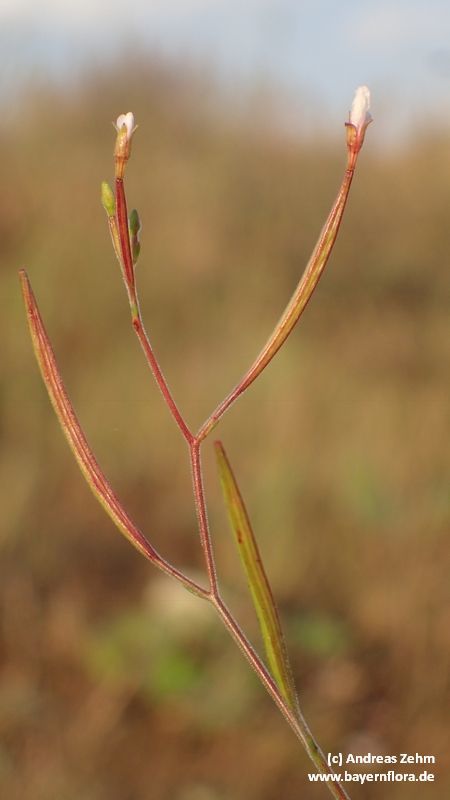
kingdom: Plantae
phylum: Tracheophyta
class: Magnoliopsida
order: Myrtales
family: Onagraceae
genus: Epilobium
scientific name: Epilobium brachycarpum
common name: Annual willowherb
